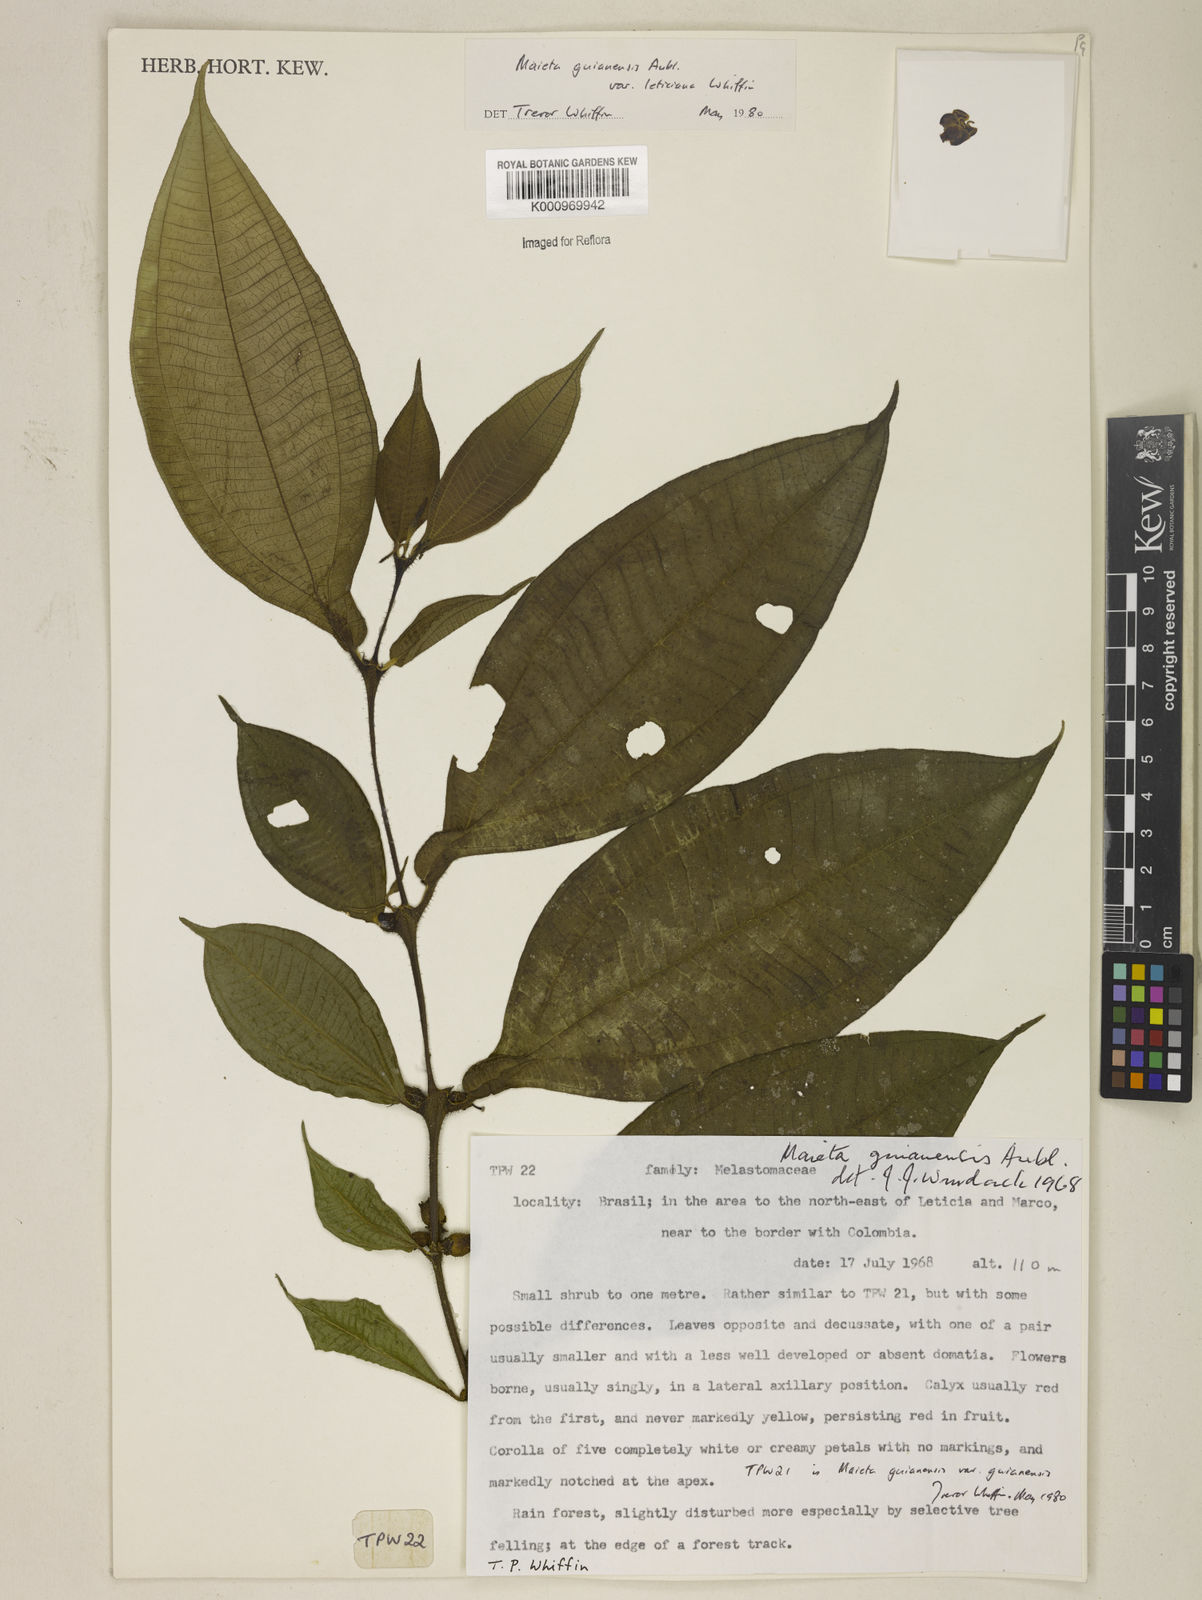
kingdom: Plantae
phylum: Tracheophyta
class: Magnoliopsida
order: Myrtales
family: Melastomataceae
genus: Miconia
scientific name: Miconia mayeta
